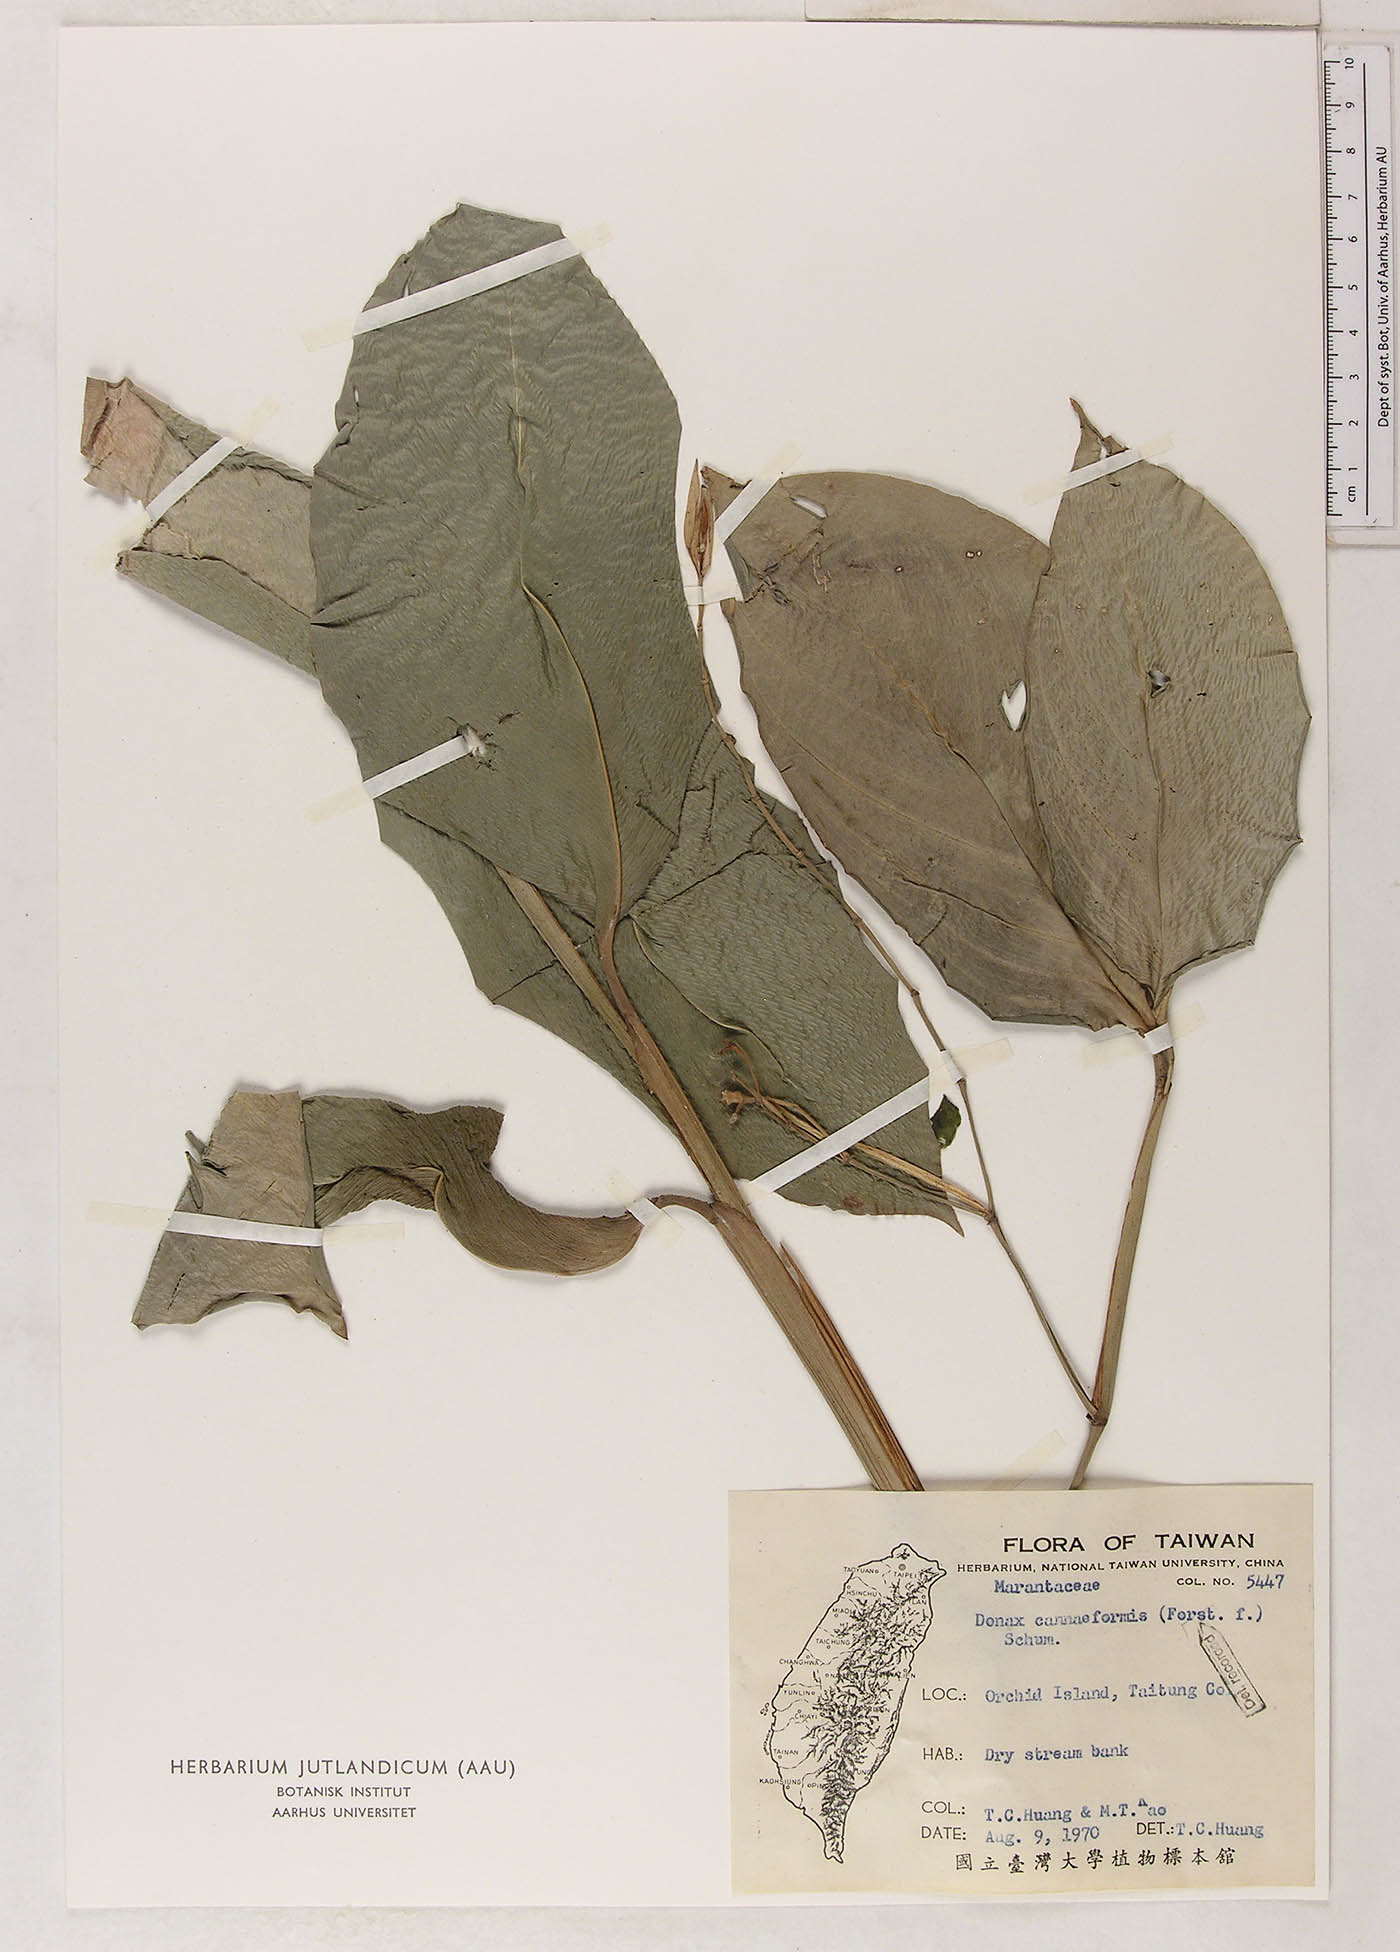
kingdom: Plantae
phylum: Tracheophyta
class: Liliopsida
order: Zingiberales
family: Marantaceae
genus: Donax
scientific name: Donax canniformis
